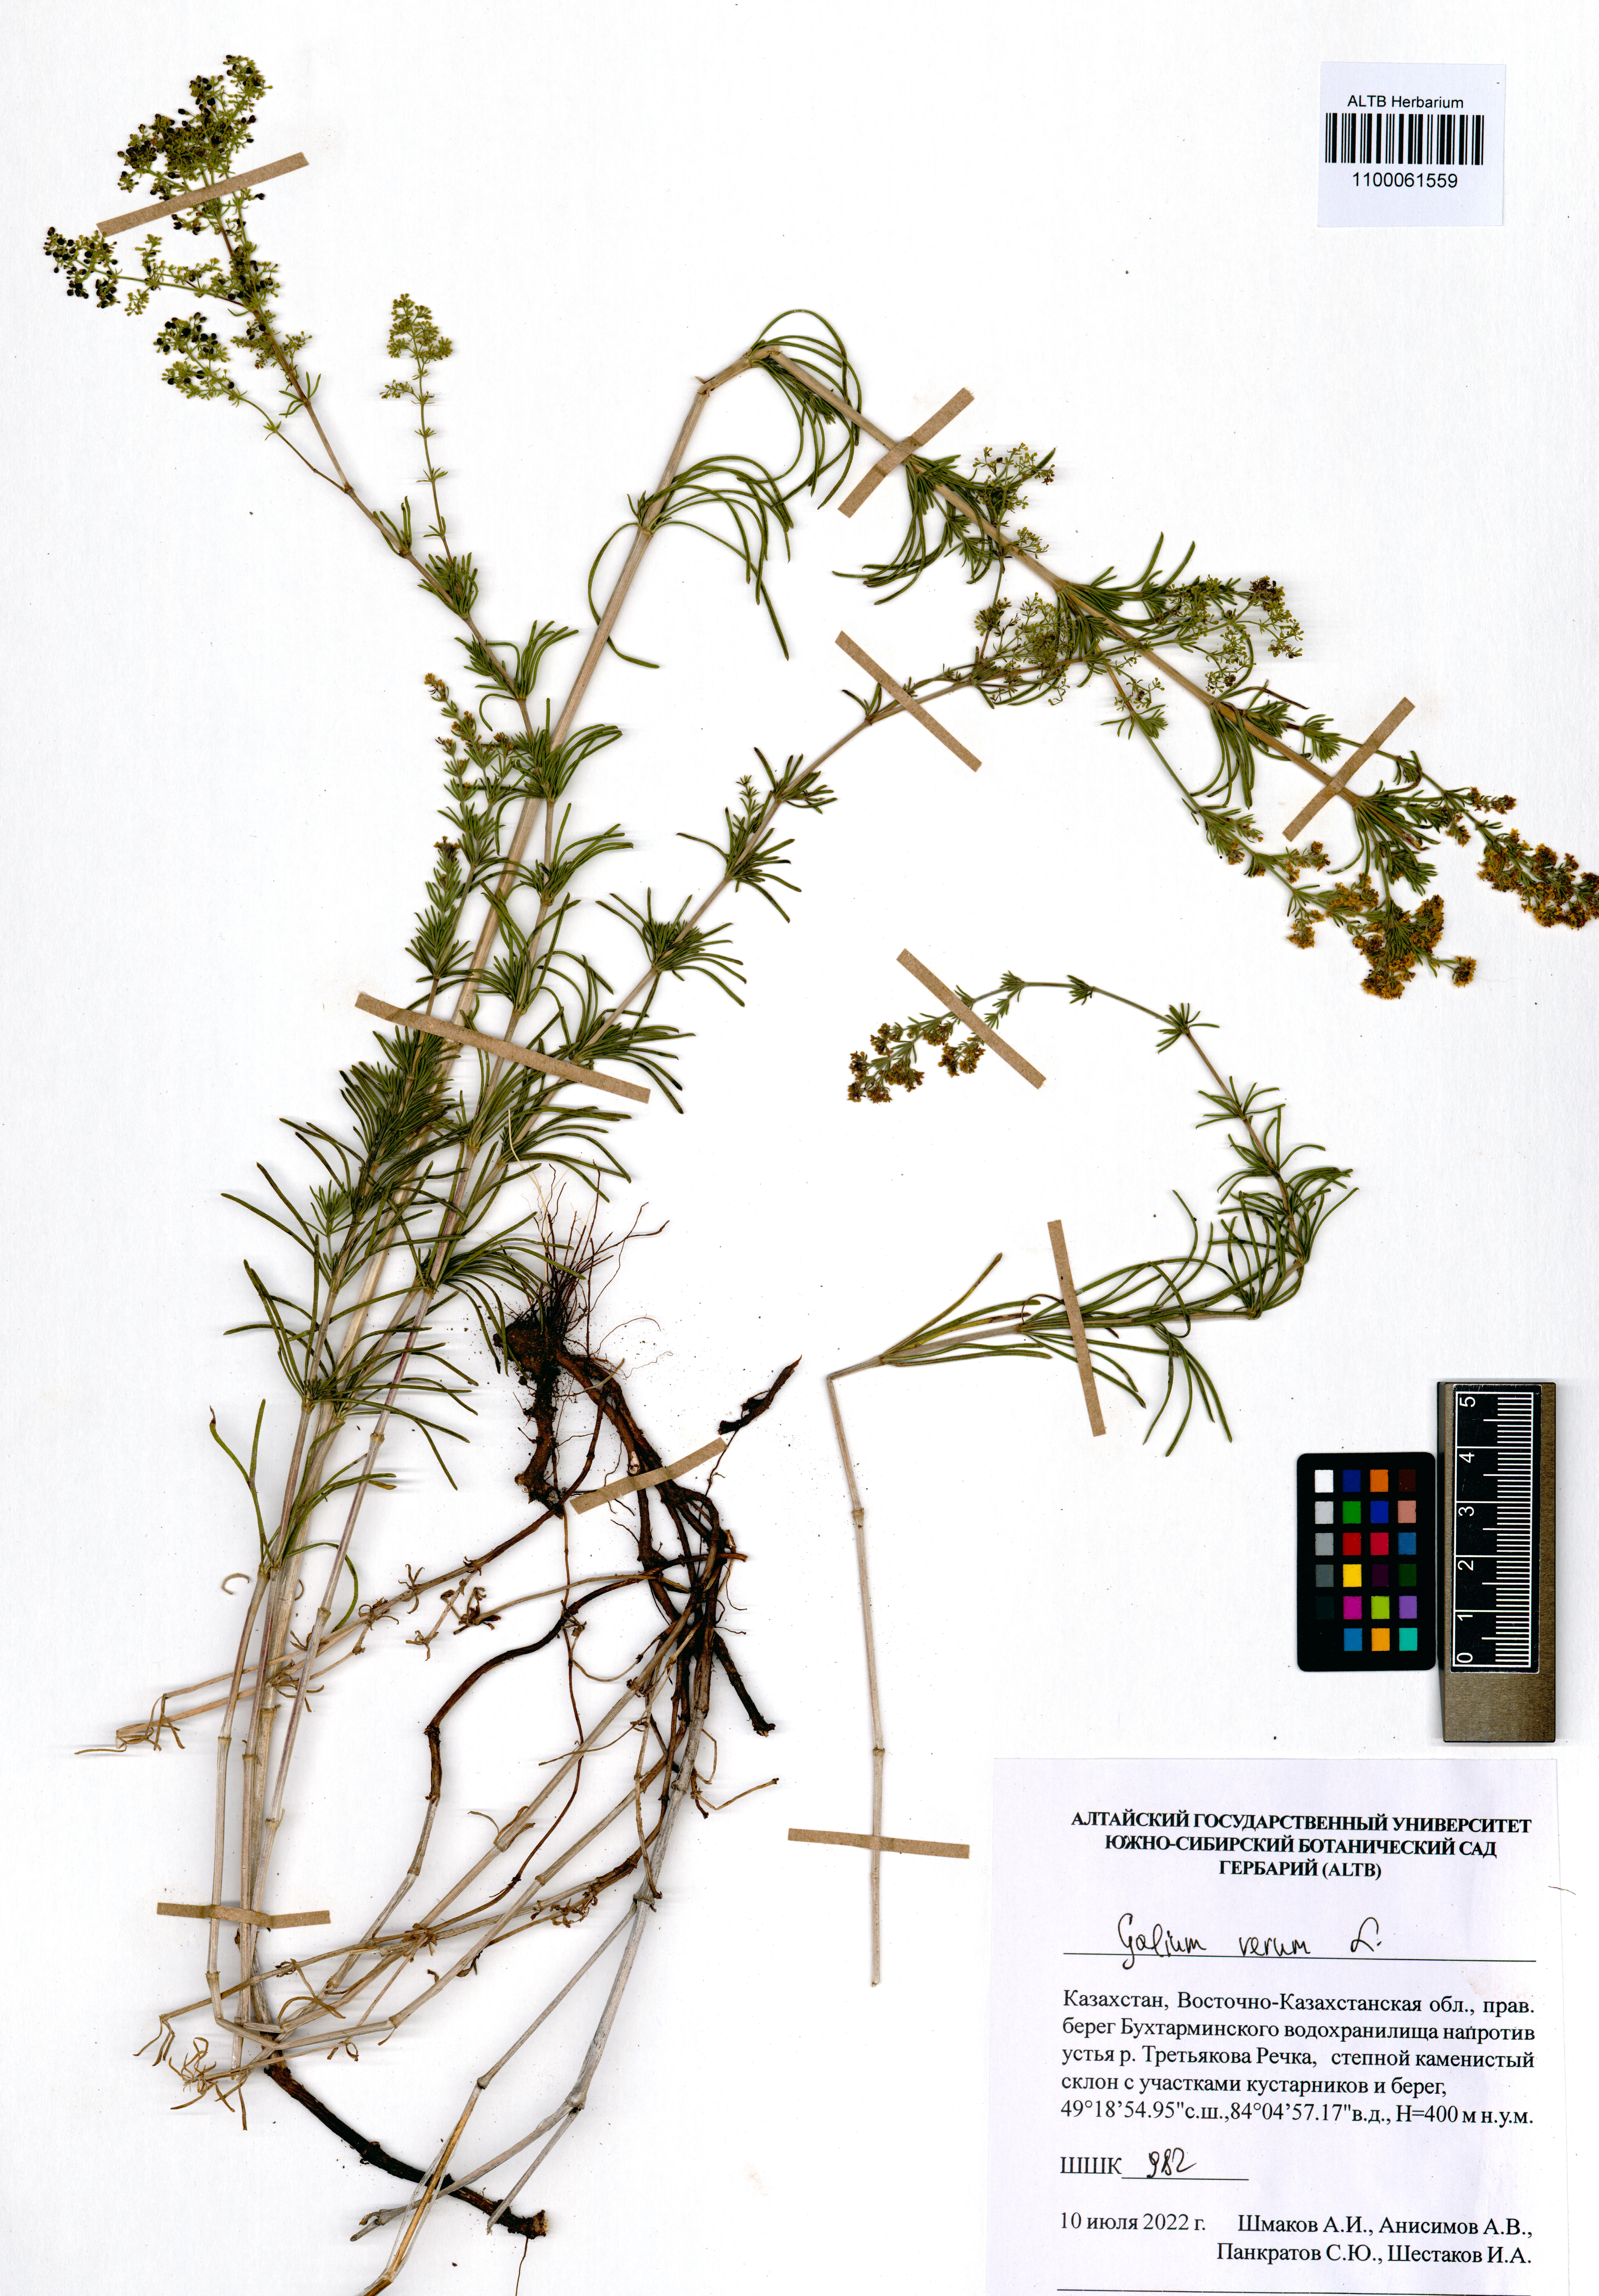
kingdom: Plantae
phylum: Tracheophyta
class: Magnoliopsida
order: Gentianales
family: Rubiaceae
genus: Galium
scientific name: Galium verum
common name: Lady's bedstraw
